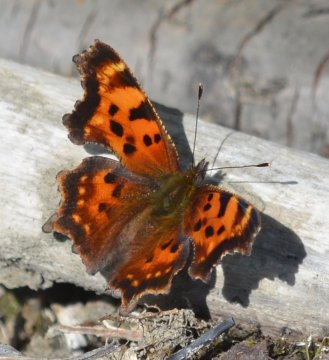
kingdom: Animalia
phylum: Arthropoda
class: Insecta
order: Lepidoptera
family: Nymphalidae
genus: Polygonia
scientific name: Polygonia faunus
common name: Green Comma
